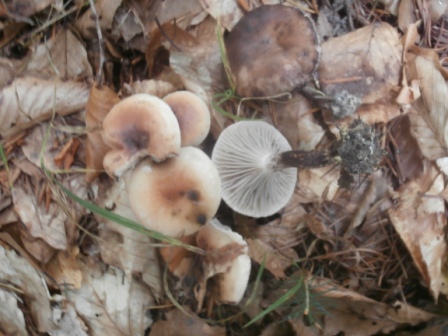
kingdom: Fungi
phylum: Basidiomycota
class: Agaricomycetes
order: Boletales
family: Gomphidiaceae
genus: Gomphidius
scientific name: Gomphidius maculatus
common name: rødmende slimslør
